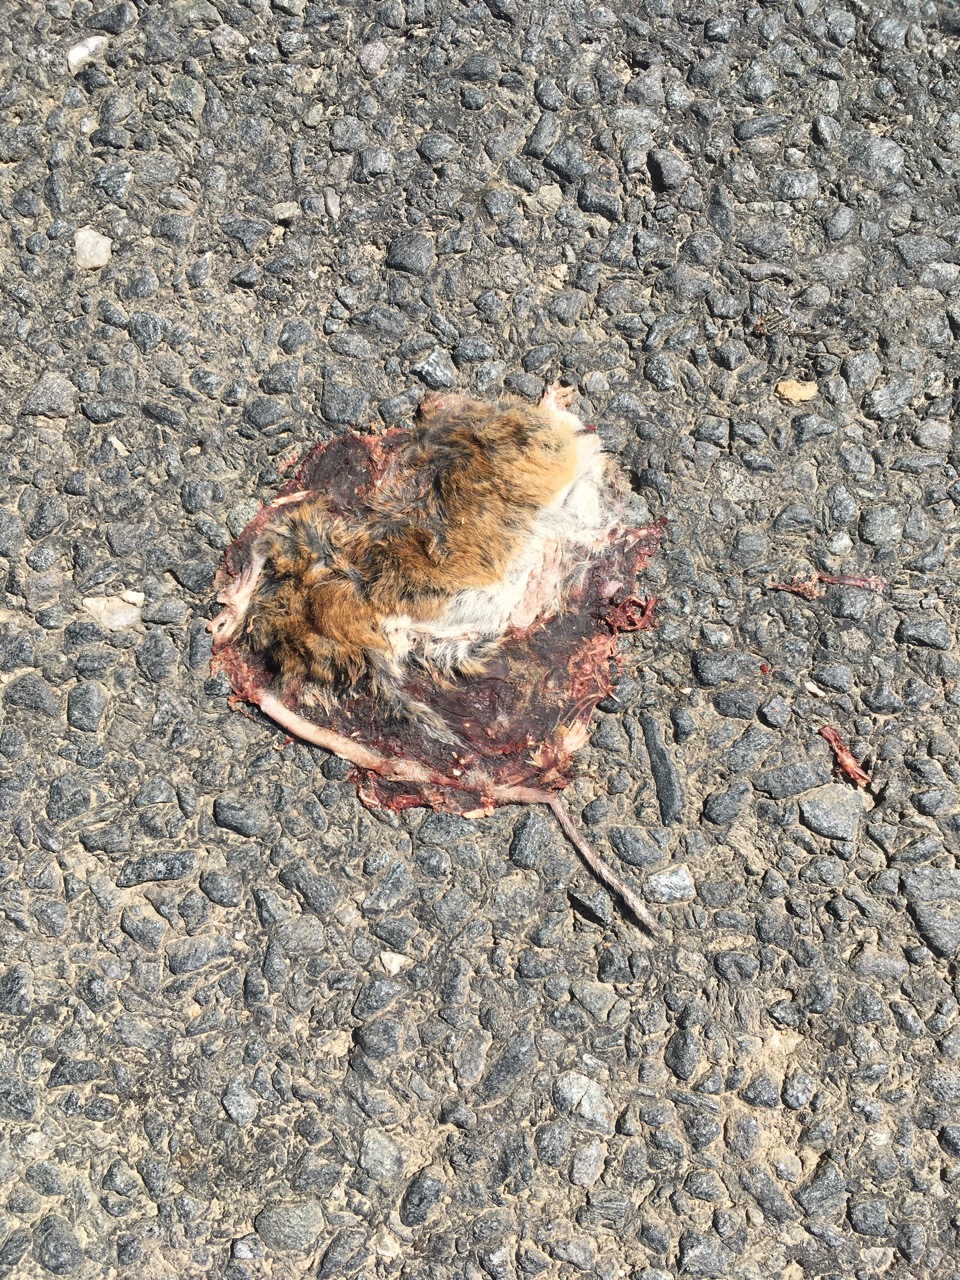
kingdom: Animalia
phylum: Chordata
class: Mammalia
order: Rodentia
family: Muridae
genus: Apodemus
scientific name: Apodemus
